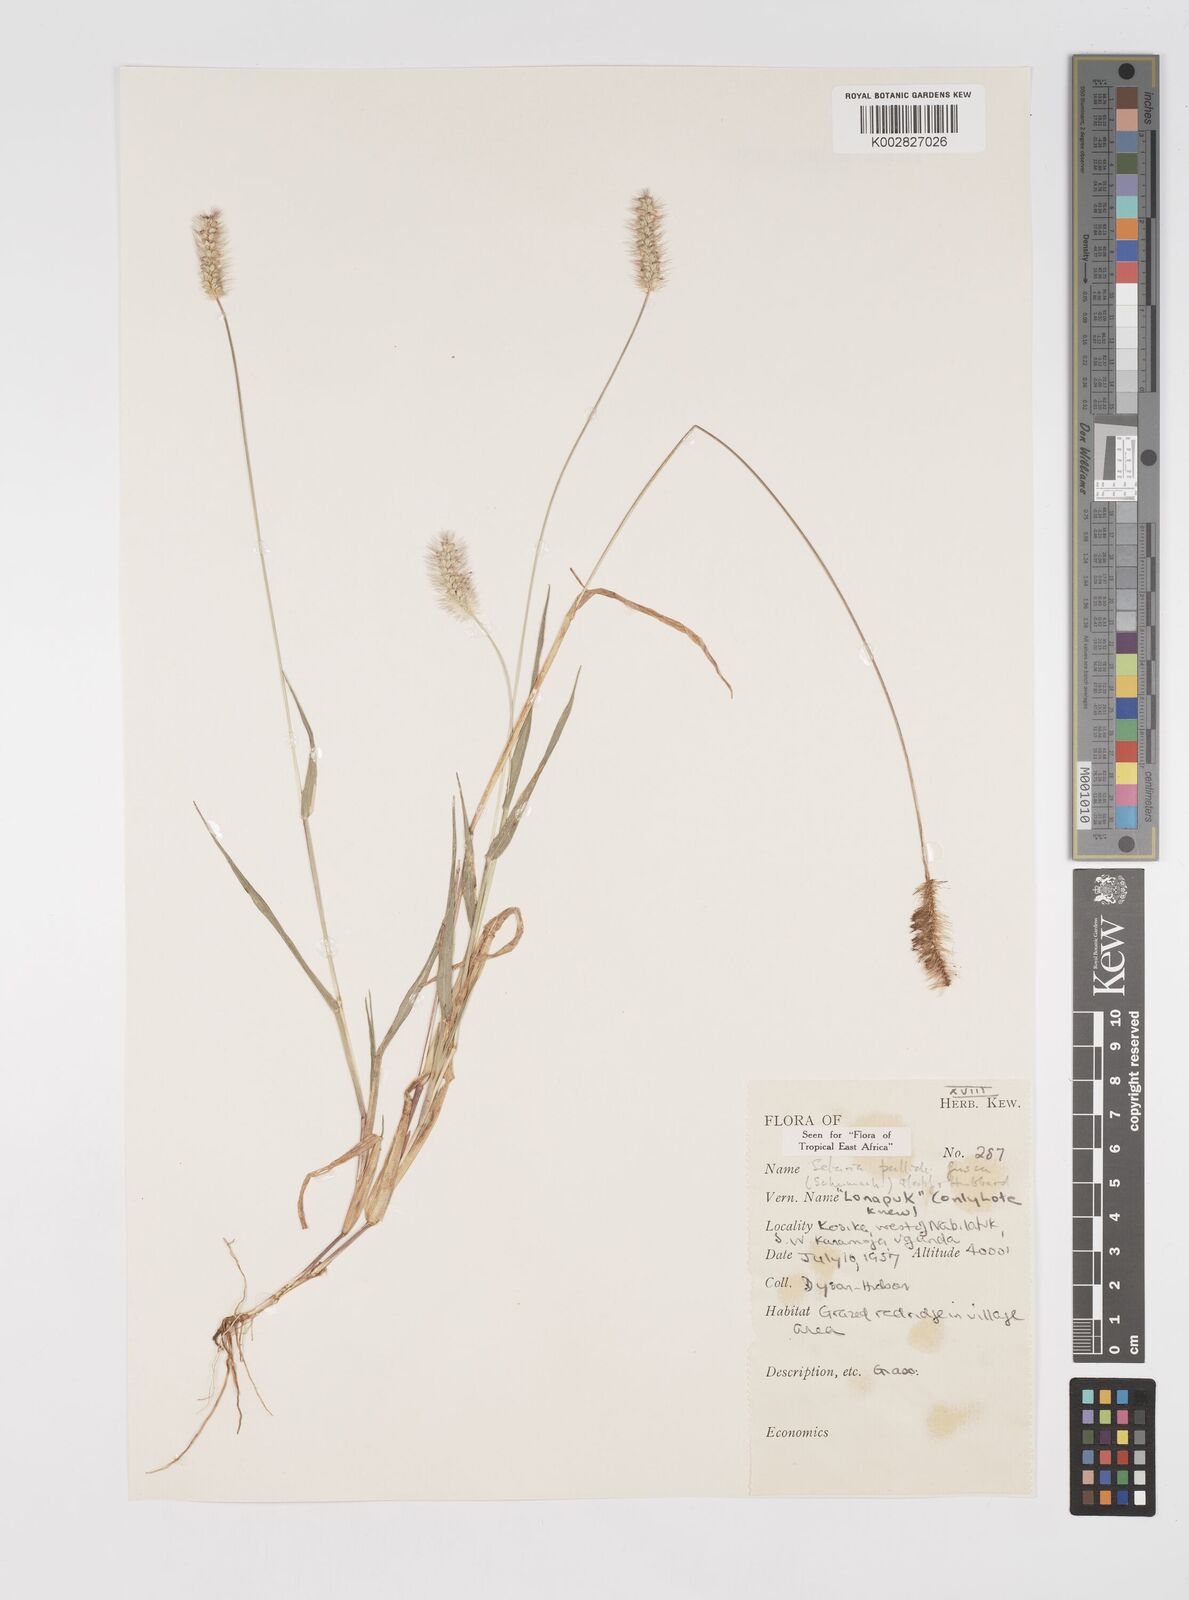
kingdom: Plantae
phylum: Tracheophyta
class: Liliopsida
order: Poales
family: Poaceae
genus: Setaria
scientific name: Setaria pumila
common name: Yellow bristle-grass
